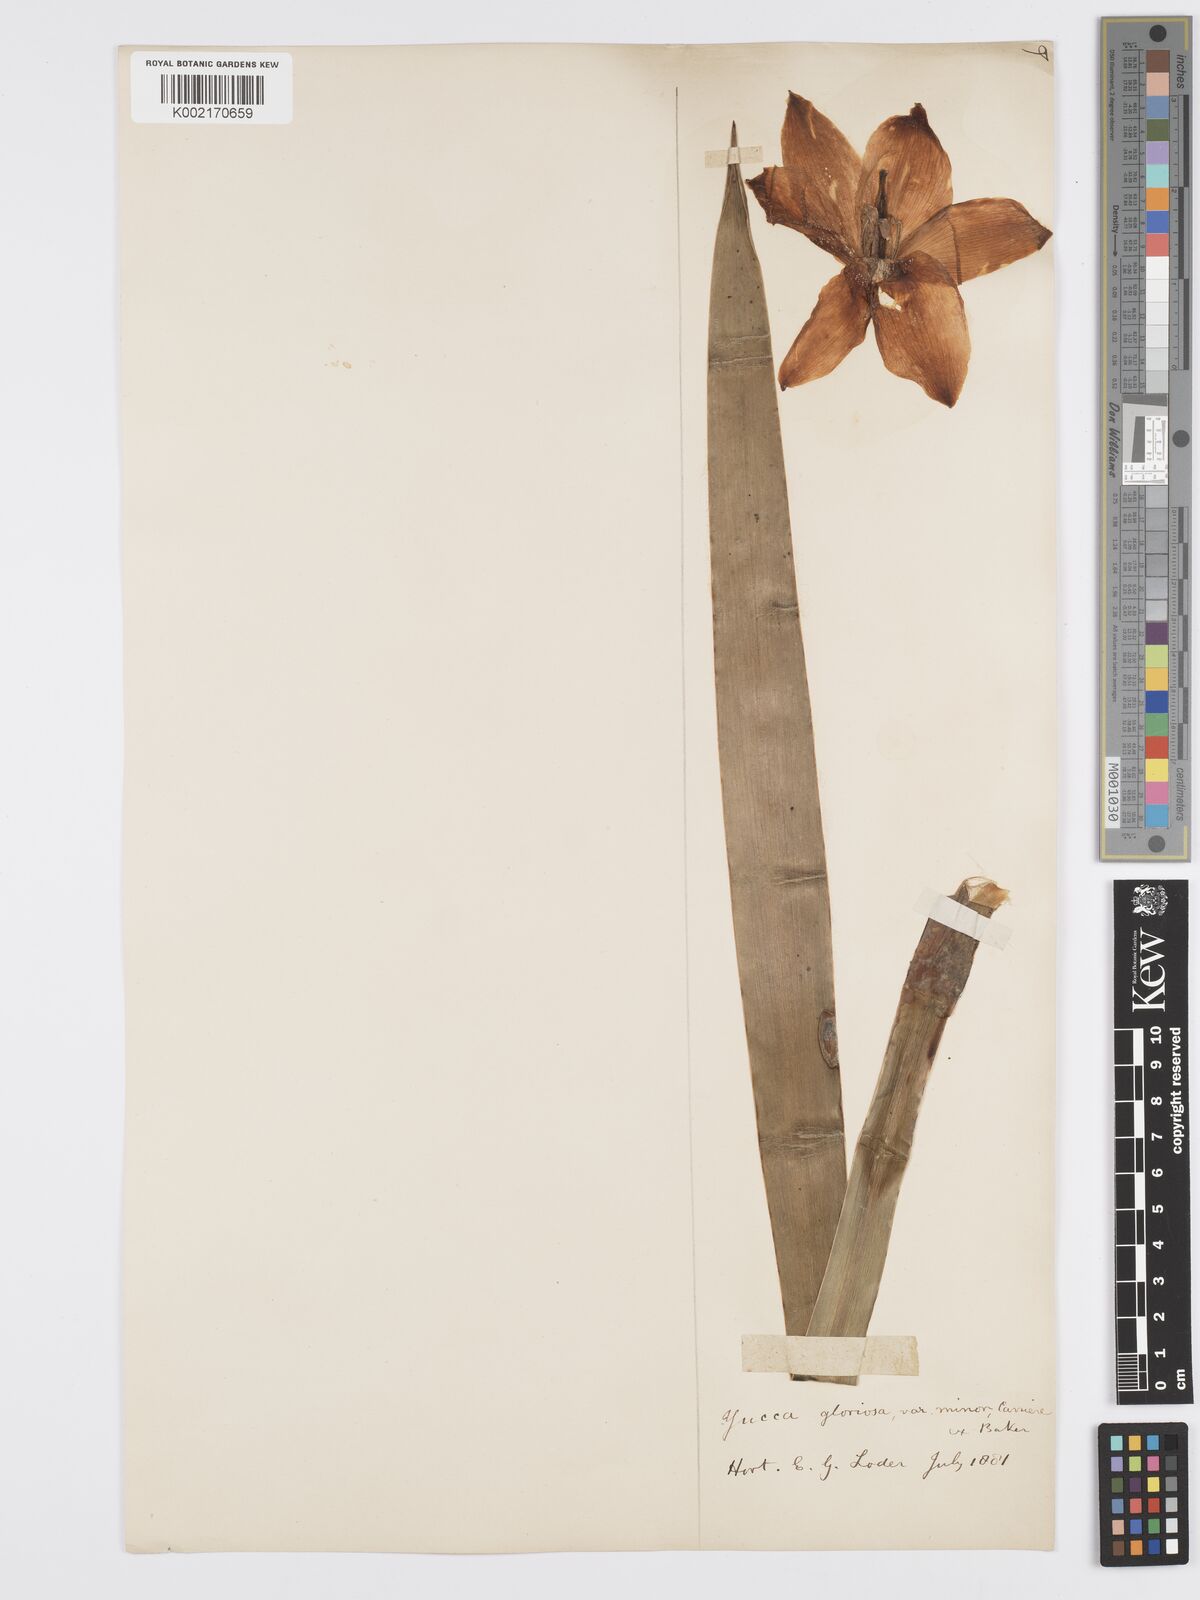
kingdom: Plantae
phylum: Tracheophyta
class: Liliopsida
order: Asparagales
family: Asparagaceae
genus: Yucca
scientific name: Yucca gloriosa
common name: Spanish-dagger
